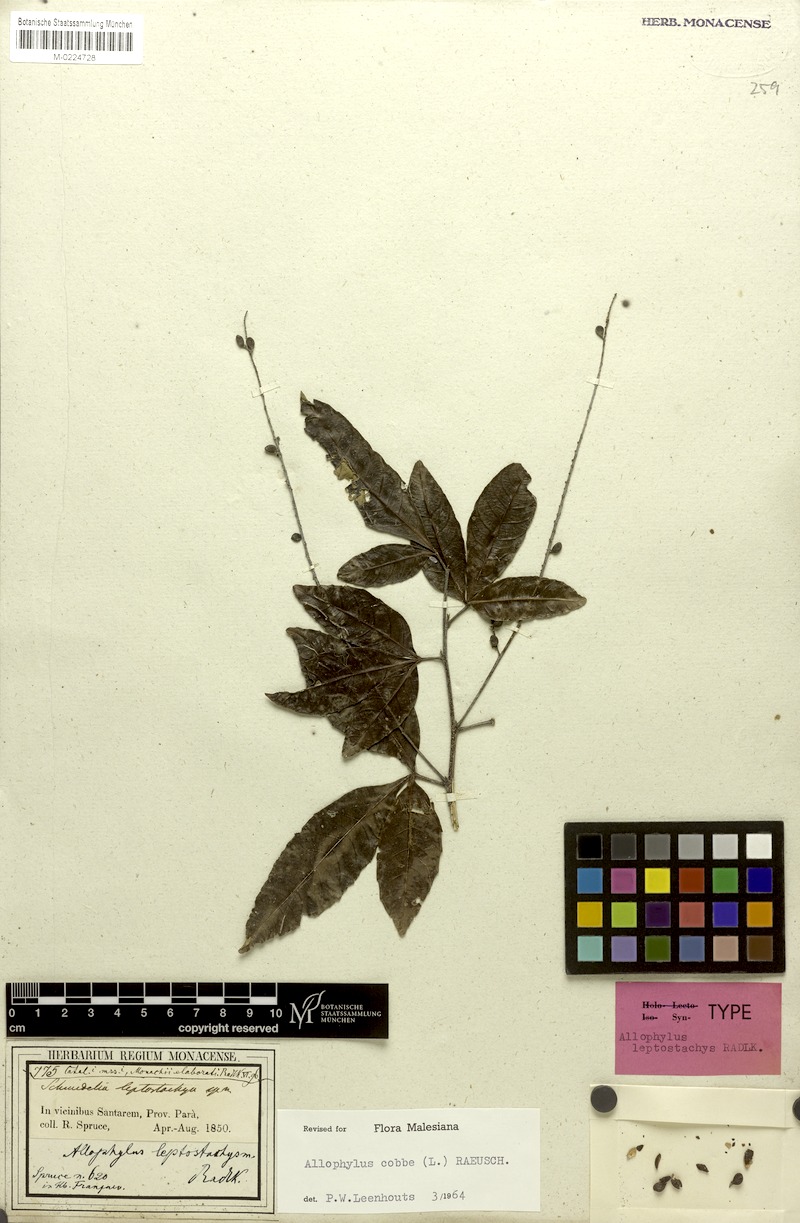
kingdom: Plantae
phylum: Tracheophyta
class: Magnoliopsida
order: Sapindales
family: Sapindaceae
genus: Allophylus
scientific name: Allophylus leptostachys
